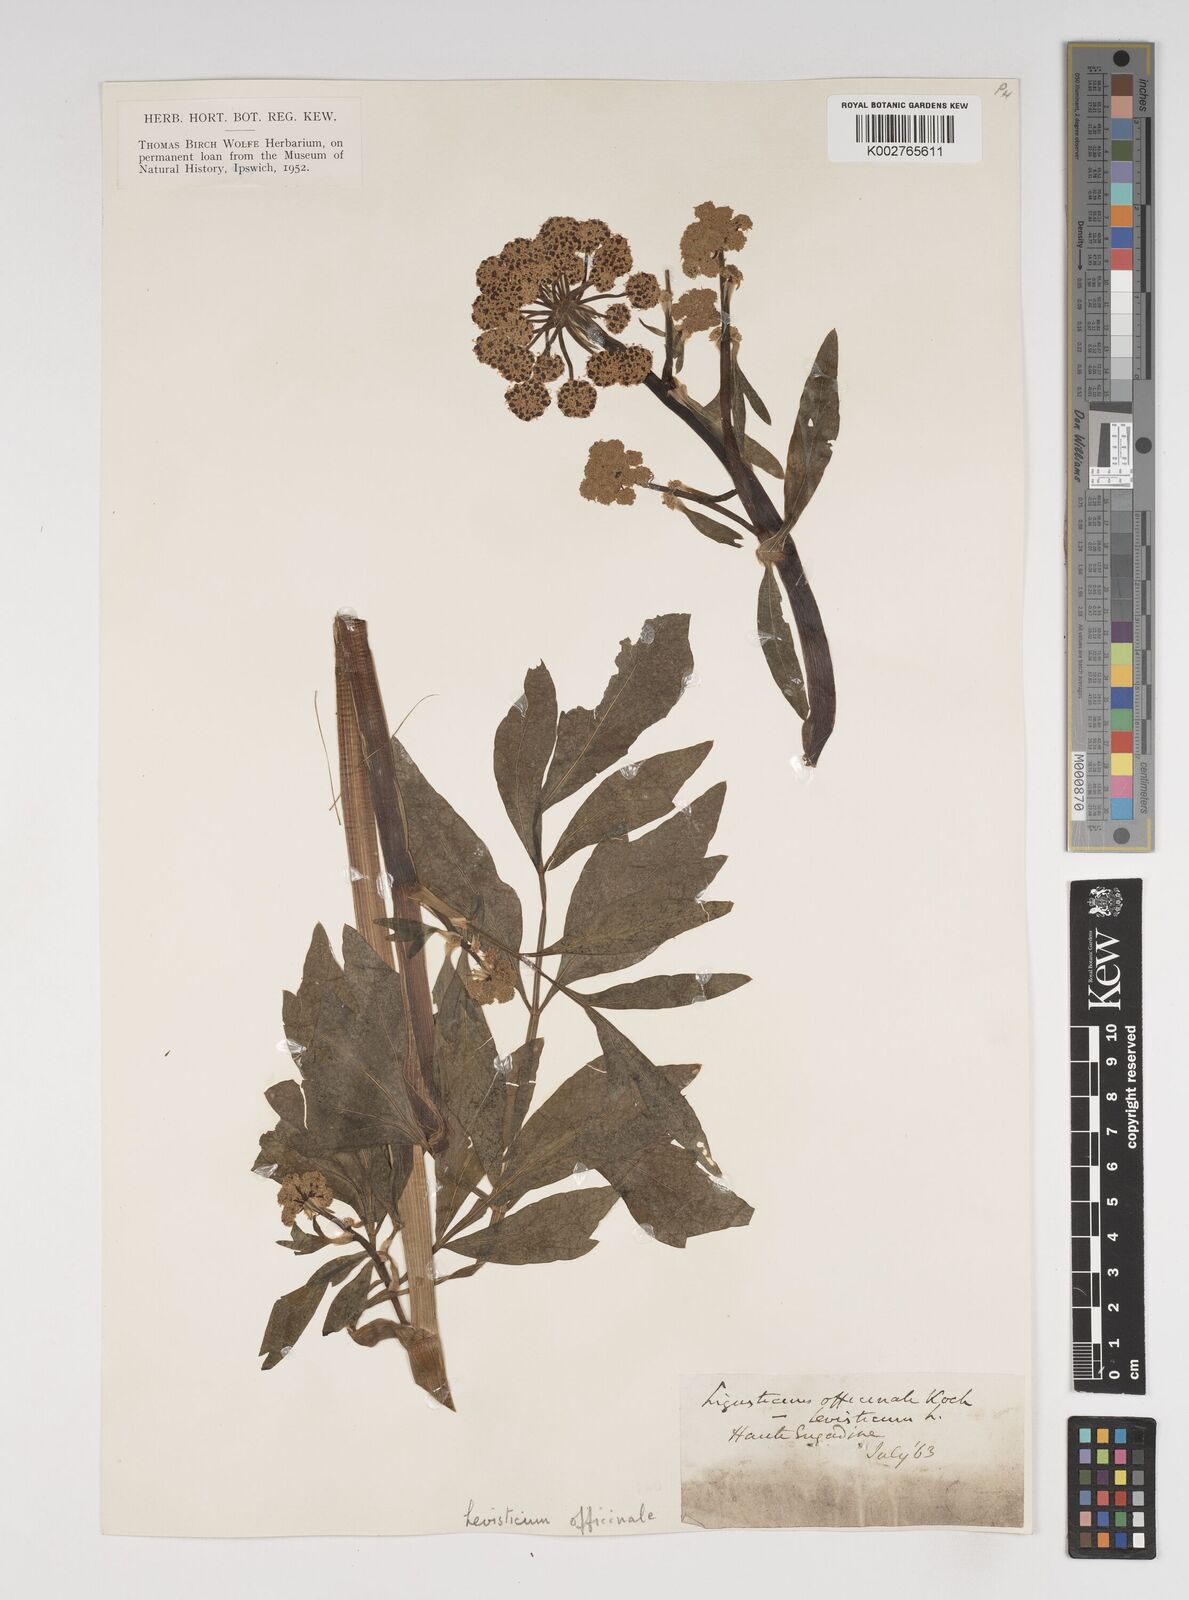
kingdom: Plantae
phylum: Tracheophyta
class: Magnoliopsida
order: Apiales
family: Apiaceae
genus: Levisticum
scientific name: Levisticum officinale
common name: Lovage
